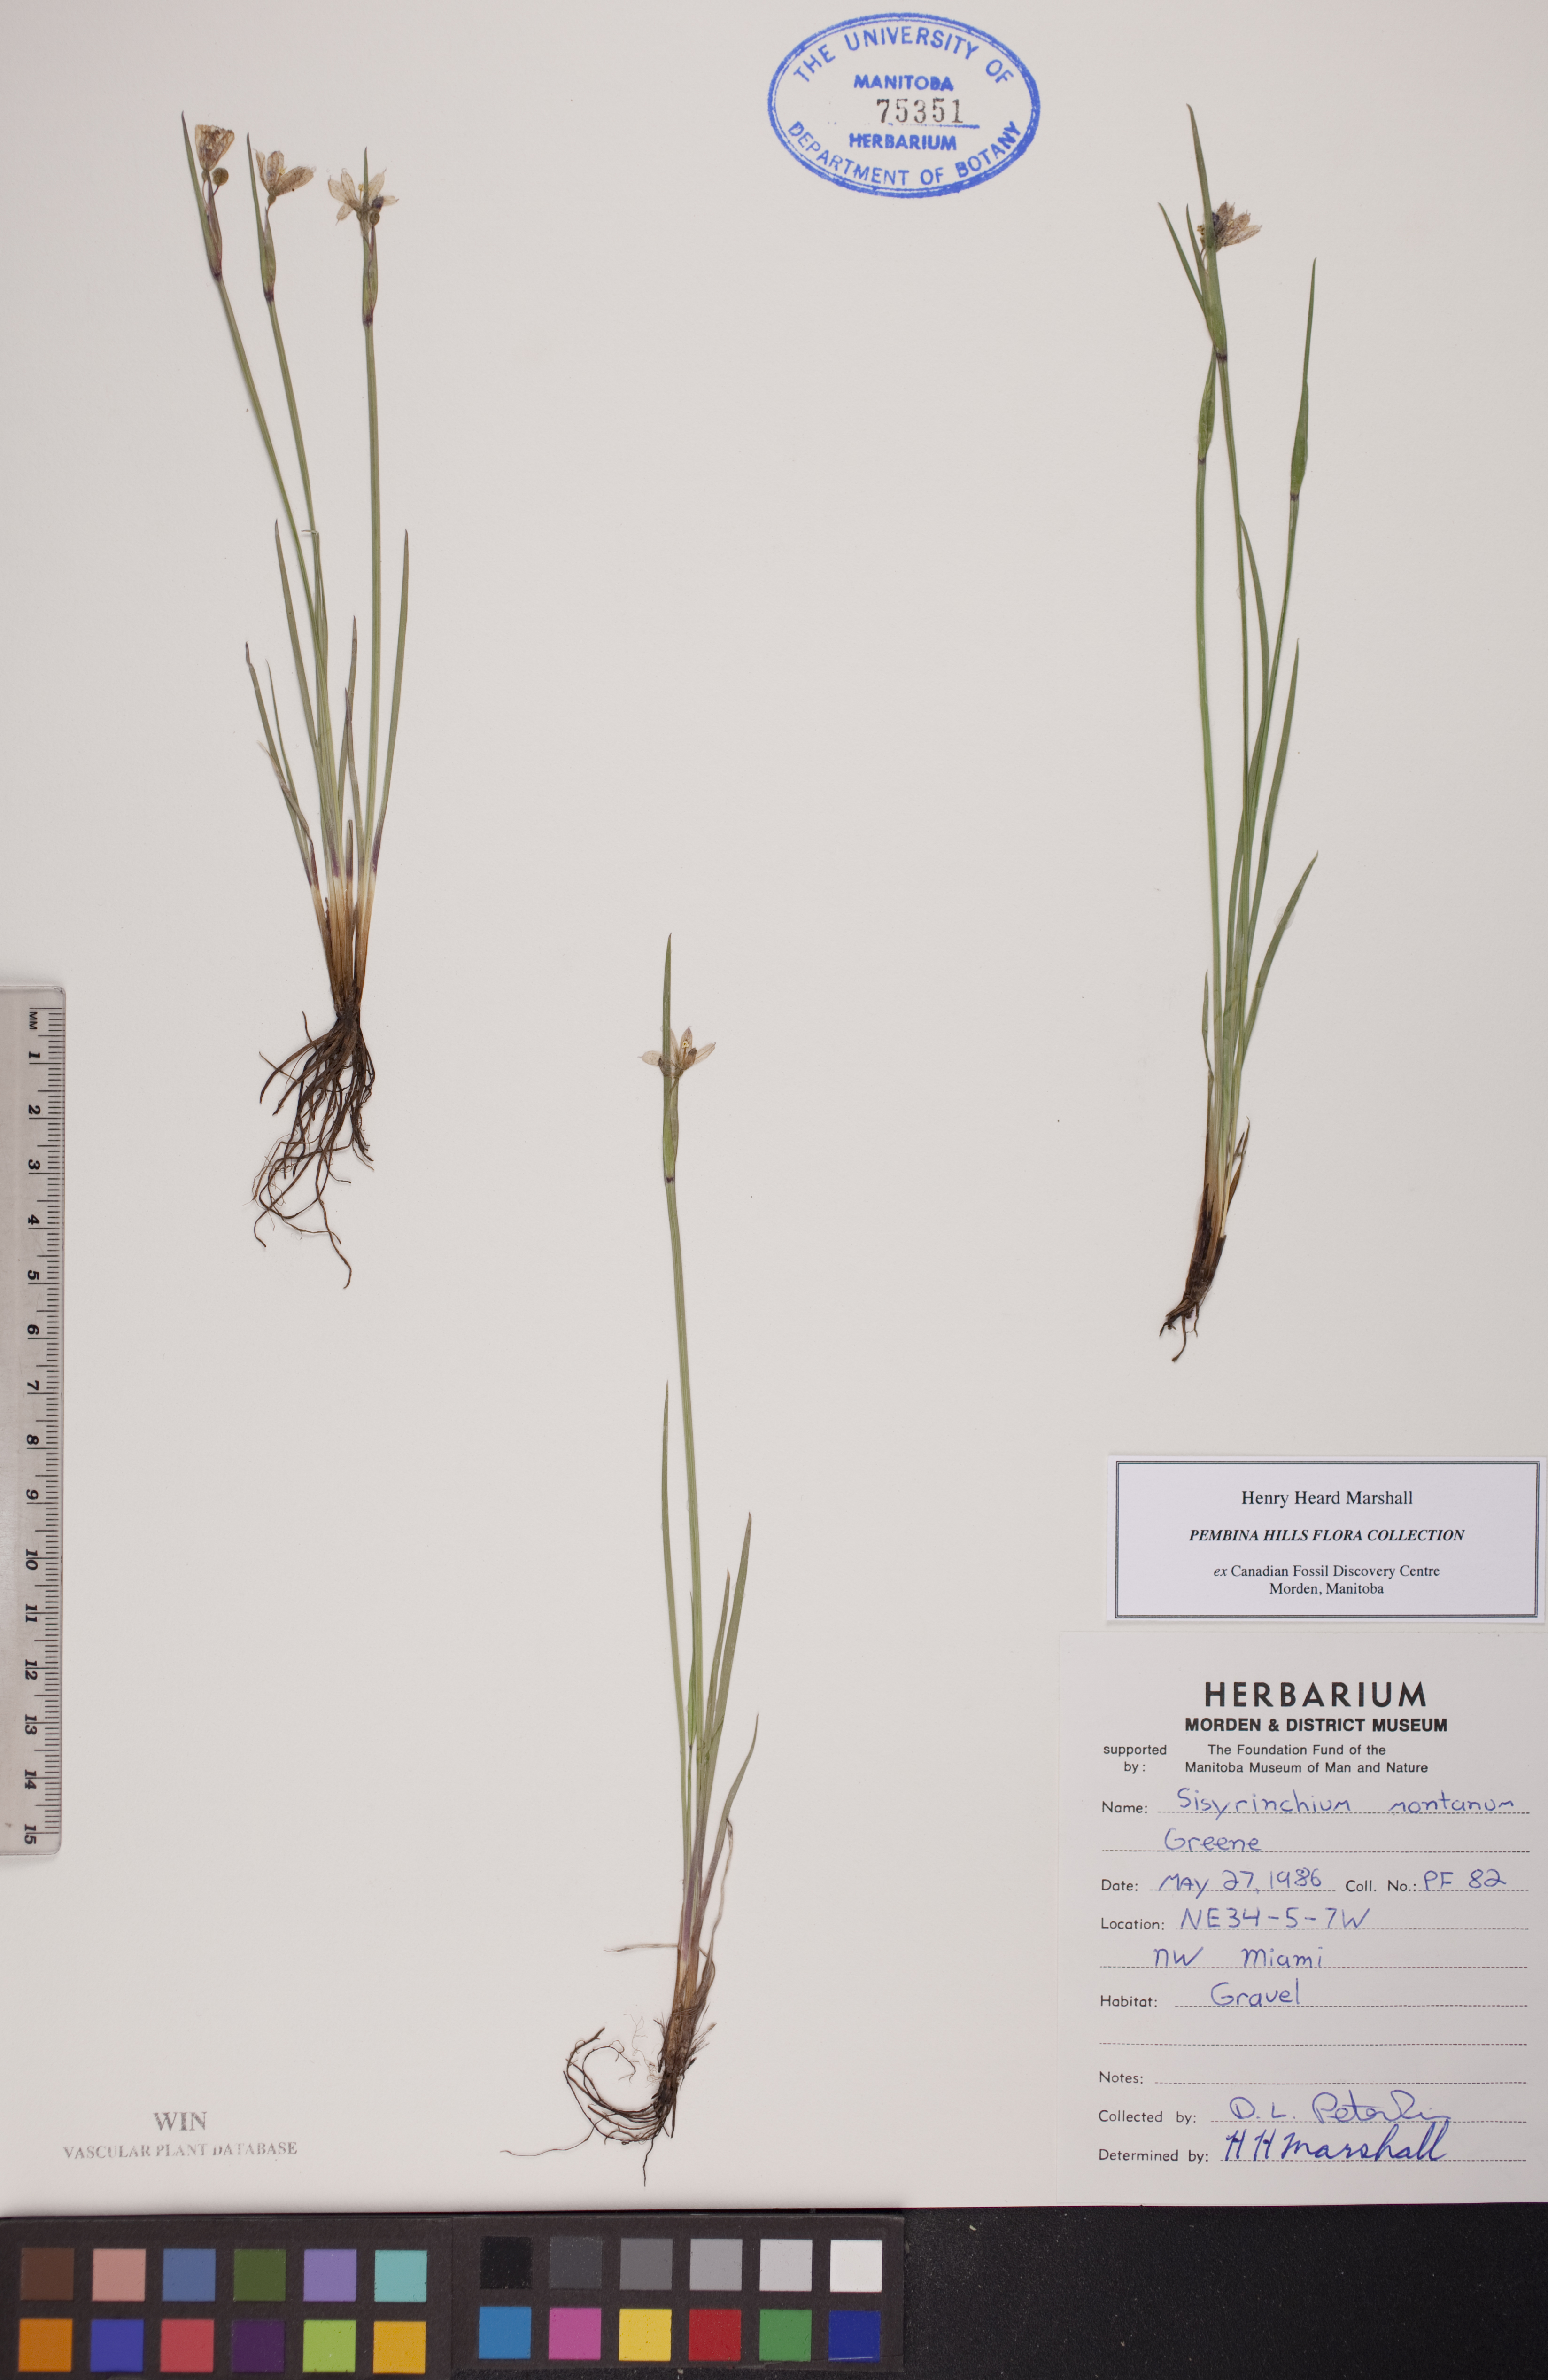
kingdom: Plantae
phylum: Tracheophyta
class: Liliopsida
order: Asparagales
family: Iridaceae
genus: Sisyrinchium
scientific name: Sisyrinchium montanum
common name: American blue-eyed-grass
